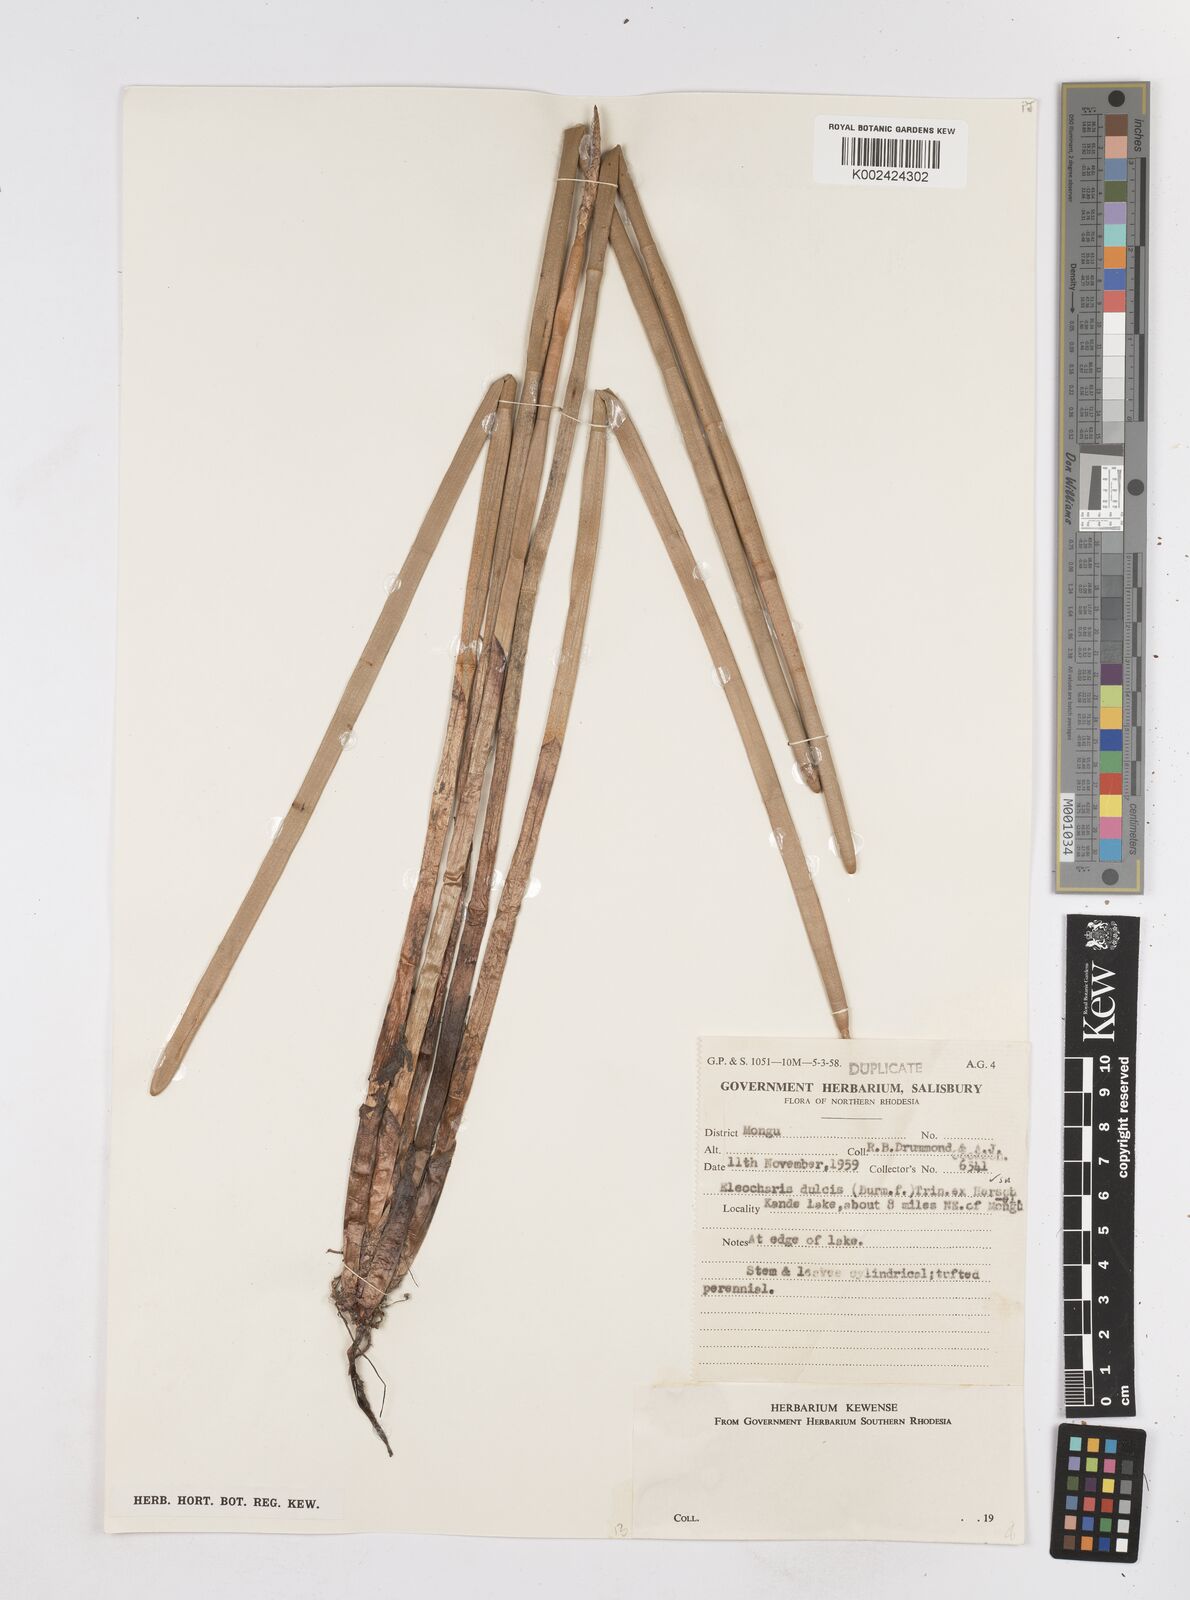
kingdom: Plantae
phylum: Tracheophyta
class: Liliopsida
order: Poales
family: Cyperaceae
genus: Eleocharis
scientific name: Eleocharis dulcis
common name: Chinese water chestnut
